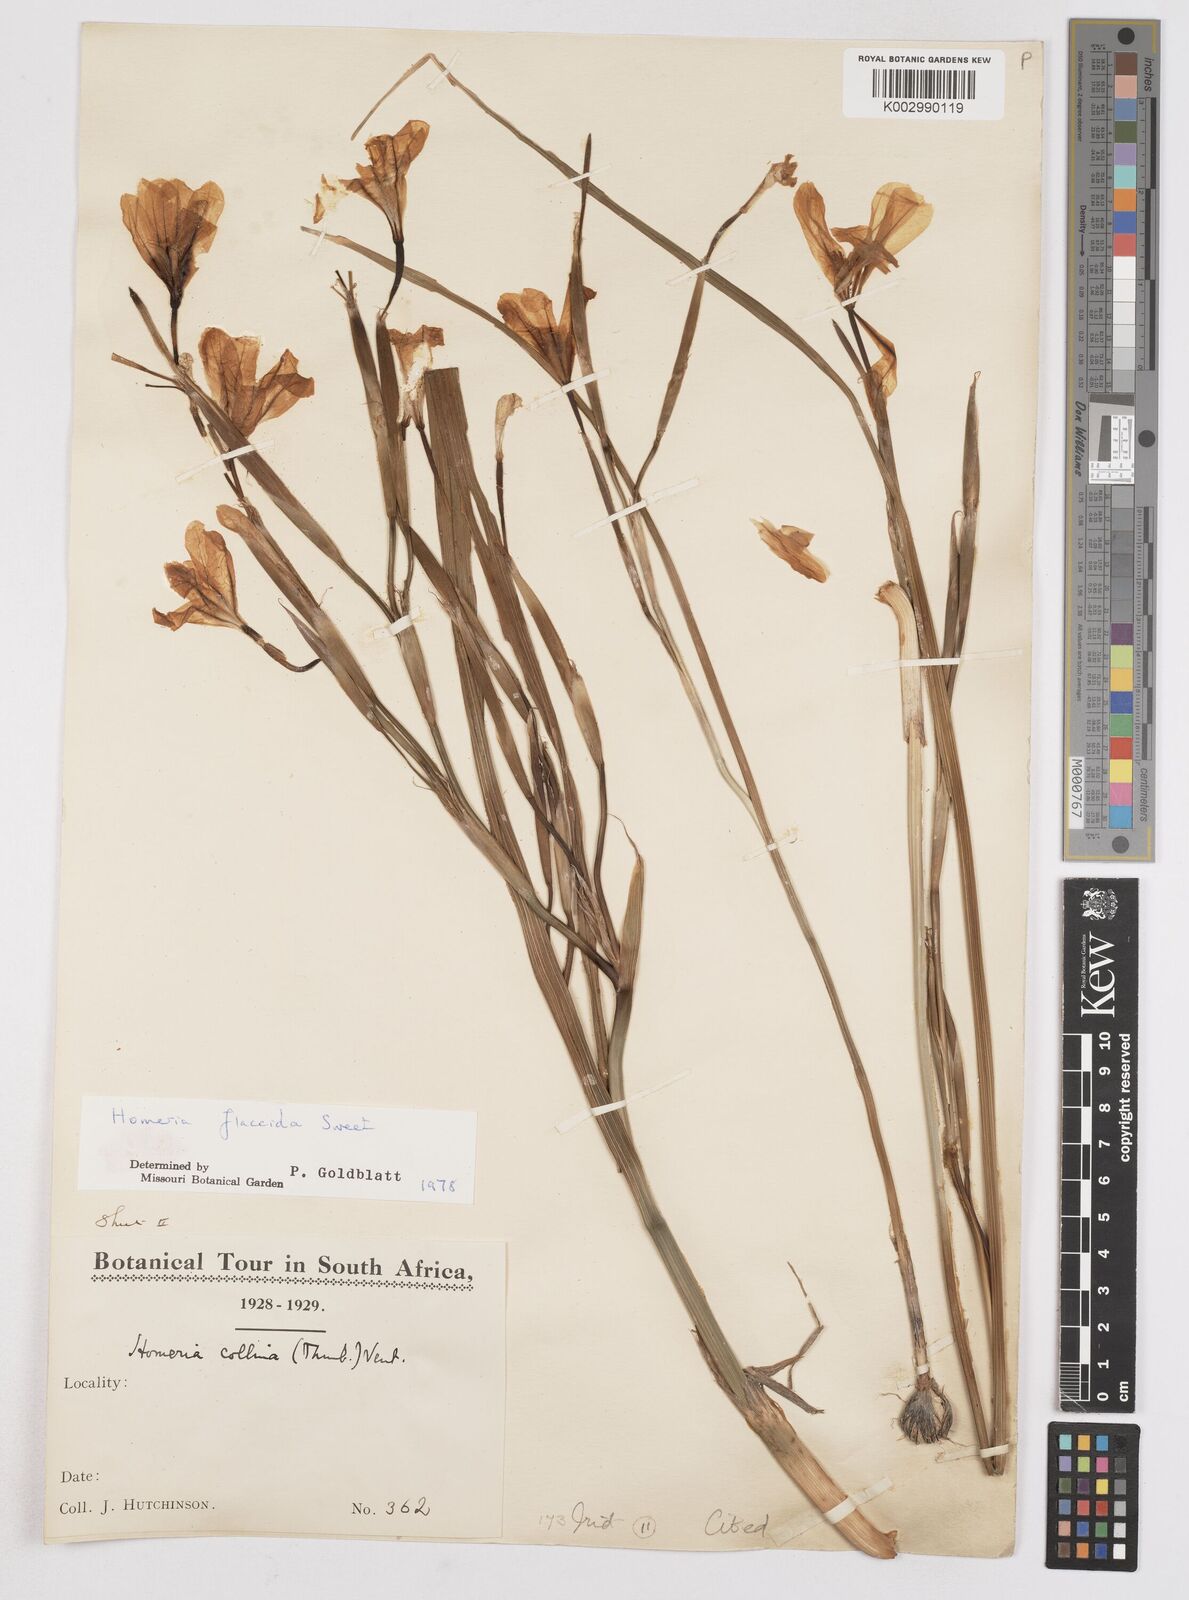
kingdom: Plantae
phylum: Tracheophyta
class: Liliopsida
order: Asparagales
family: Iridaceae
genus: Moraea
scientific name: Moraea flaccida
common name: One-leaf cape-tulip
